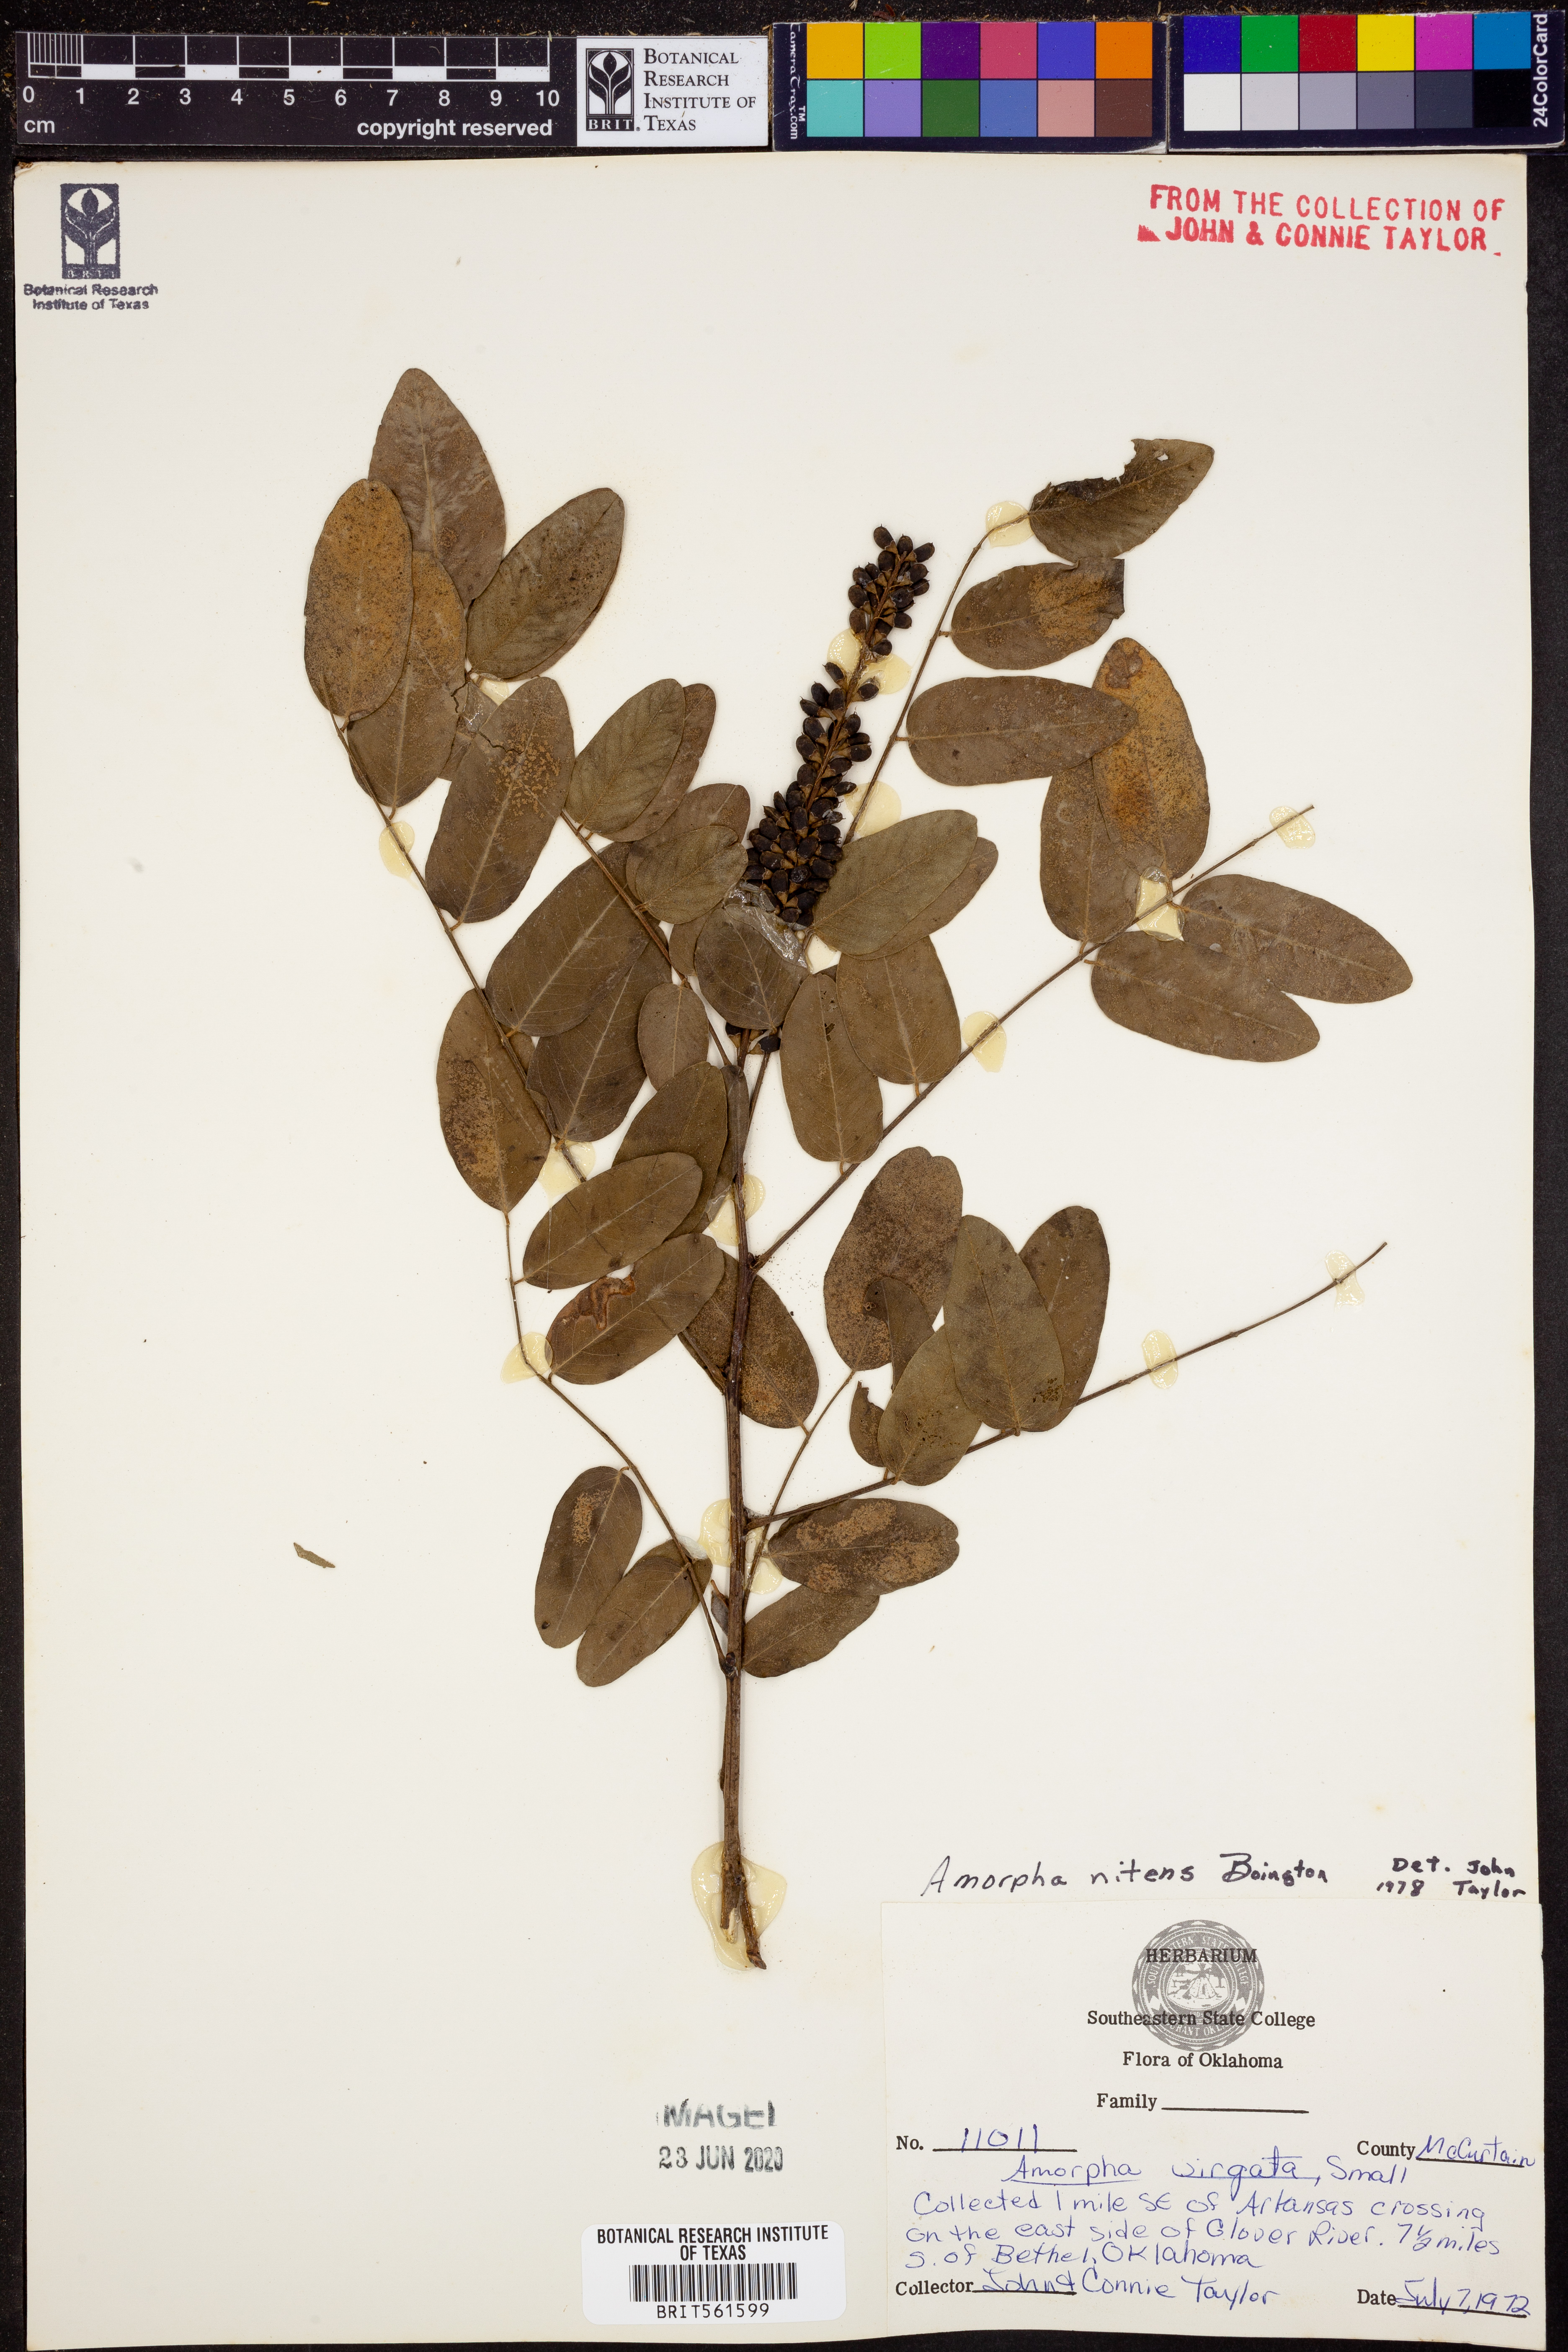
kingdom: Plantae
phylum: Tracheophyta
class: Magnoliopsida
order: Fabales
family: Fabaceae
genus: Amorpha
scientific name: Amorpha nitens
